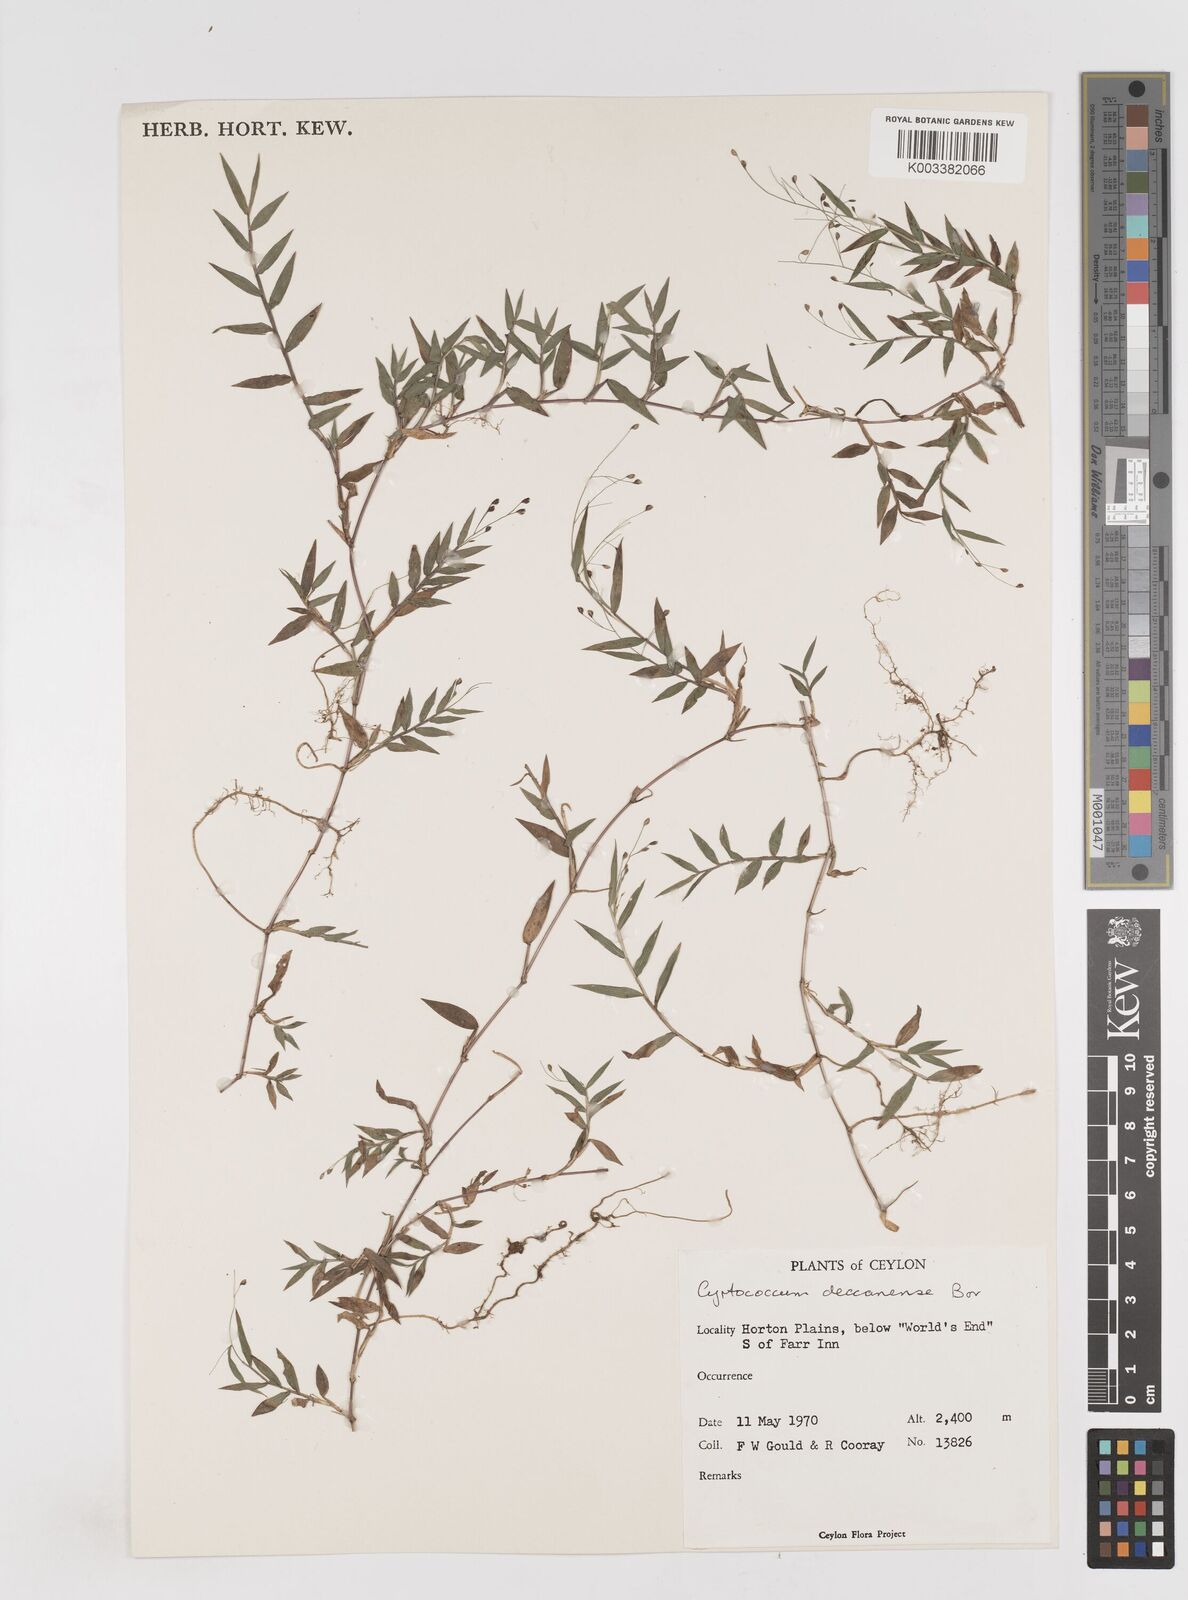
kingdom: Plantae
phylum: Tracheophyta
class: Liliopsida
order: Poales
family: Poaceae
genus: Cyrtococcum
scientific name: Cyrtococcum deccanense
